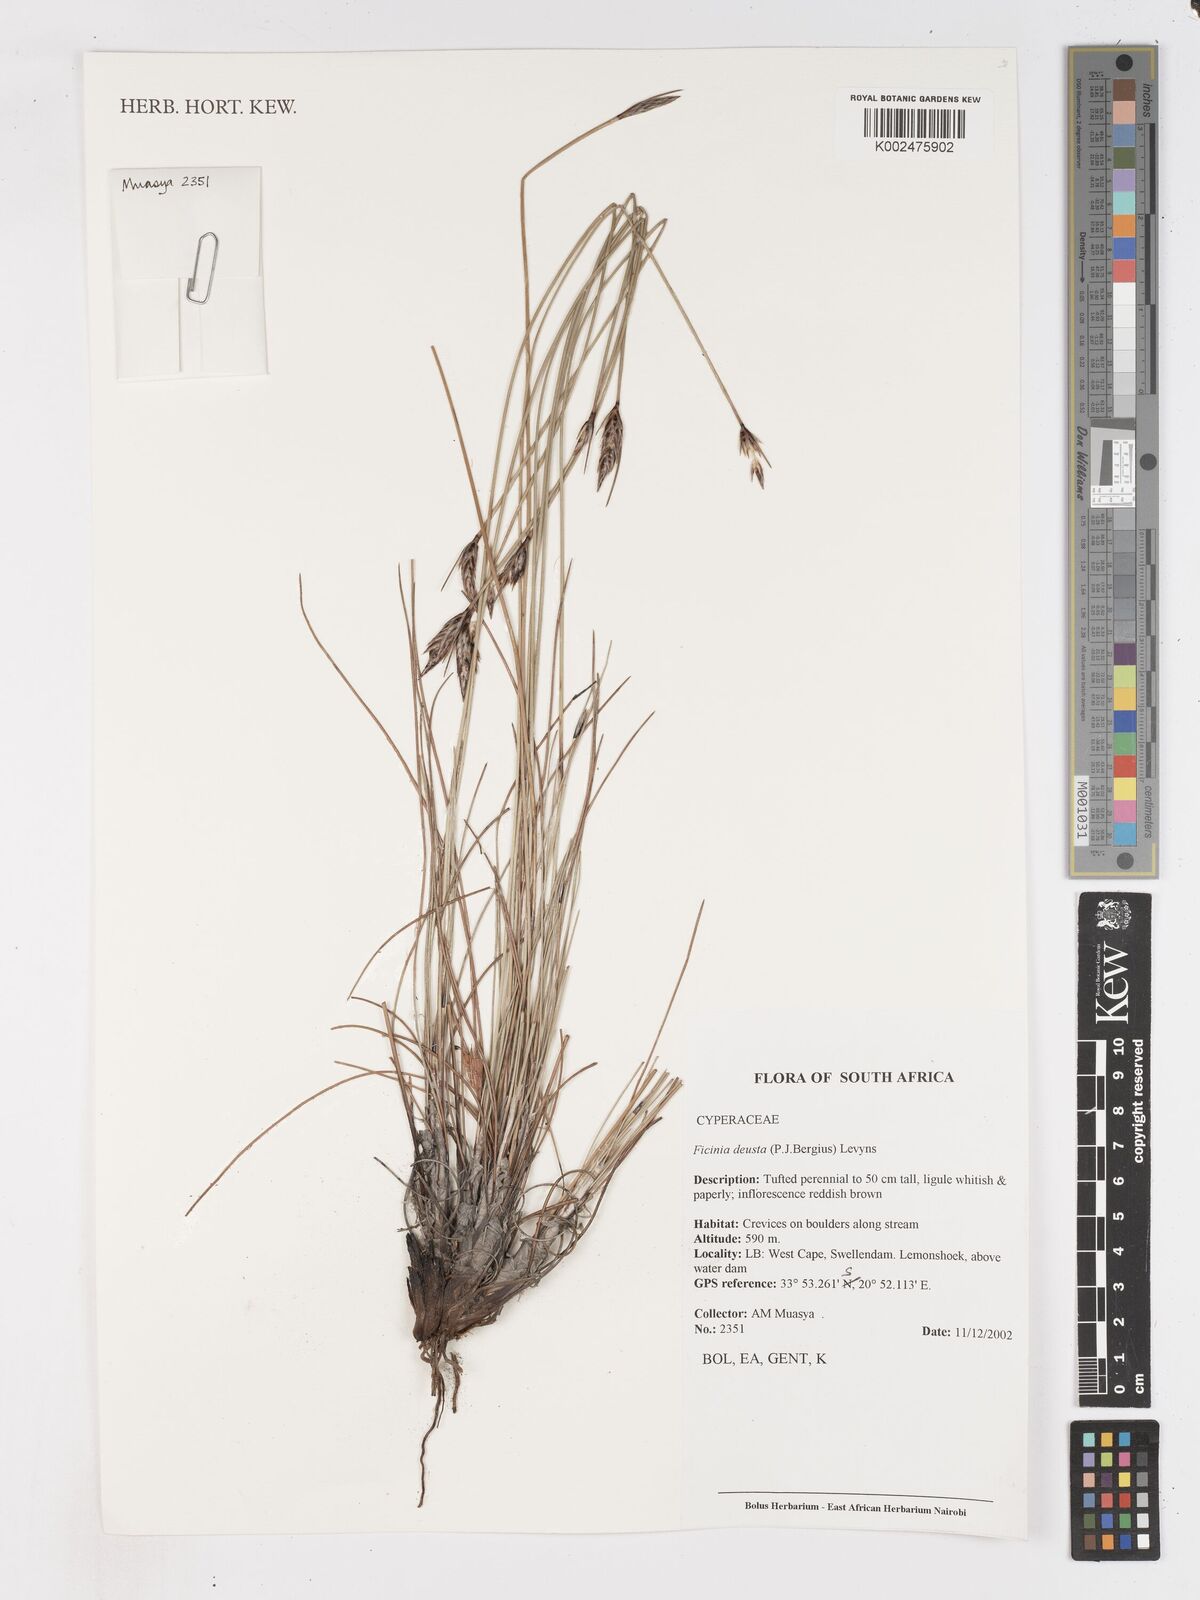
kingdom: Plantae
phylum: Tracheophyta
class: Liliopsida
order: Poales
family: Cyperaceae
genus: Ficinia
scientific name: Ficinia deusta
